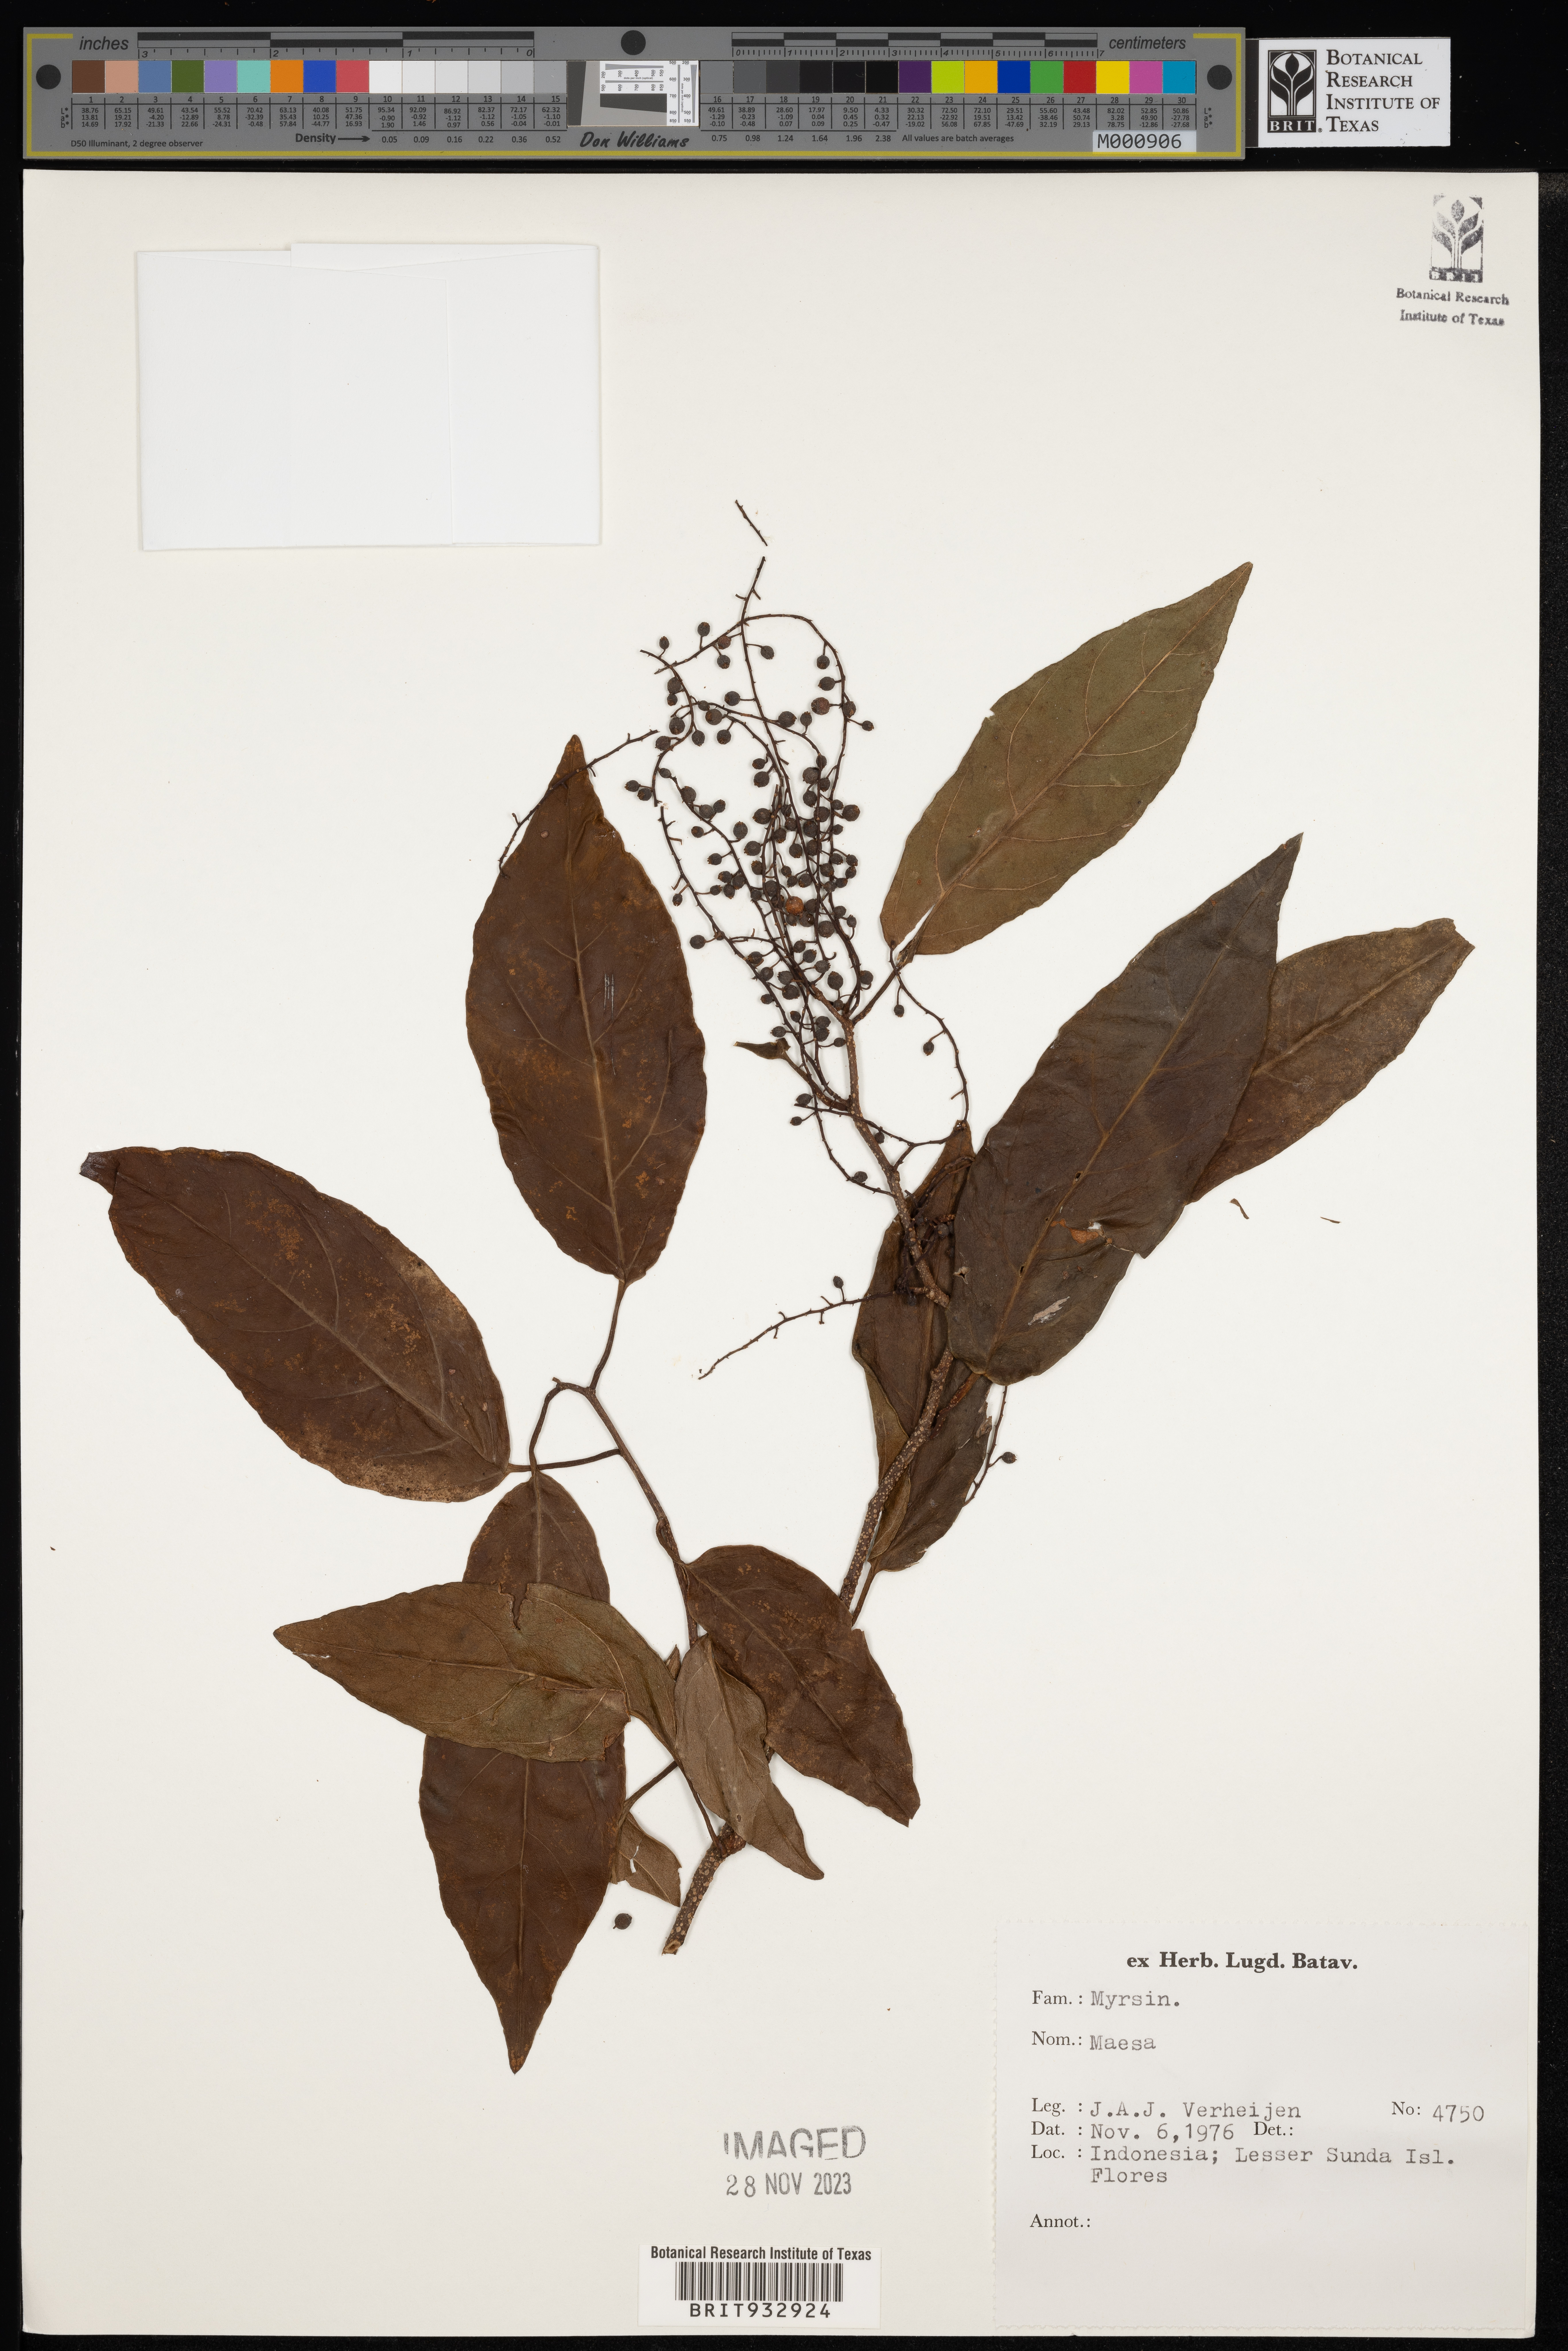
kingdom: Plantae
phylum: Tracheophyta
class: Magnoliopsida
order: Ericales
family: Primulaceae
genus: Maesa
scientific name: Maesa
